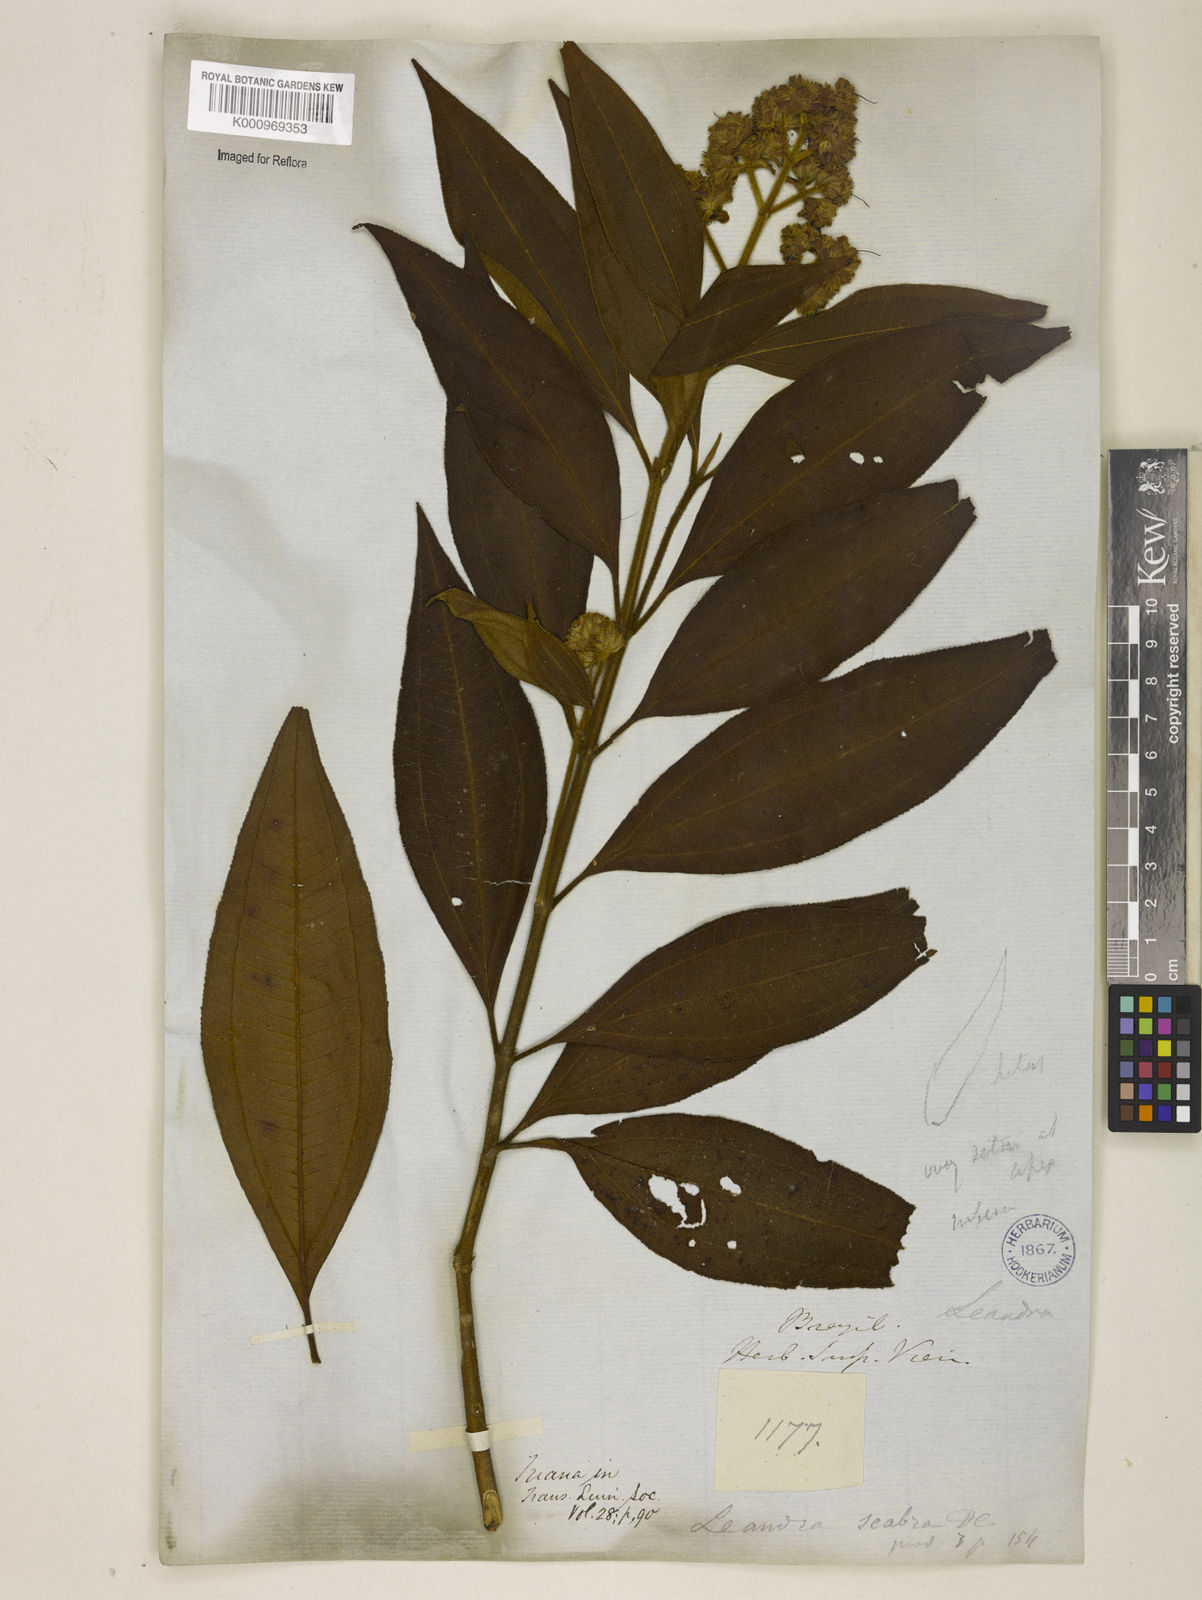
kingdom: Plantae
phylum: Tracheophyta
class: Magnoliopsida
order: Myrtales
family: Melastomataceae
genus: Miconia
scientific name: Miconia melastomoides
